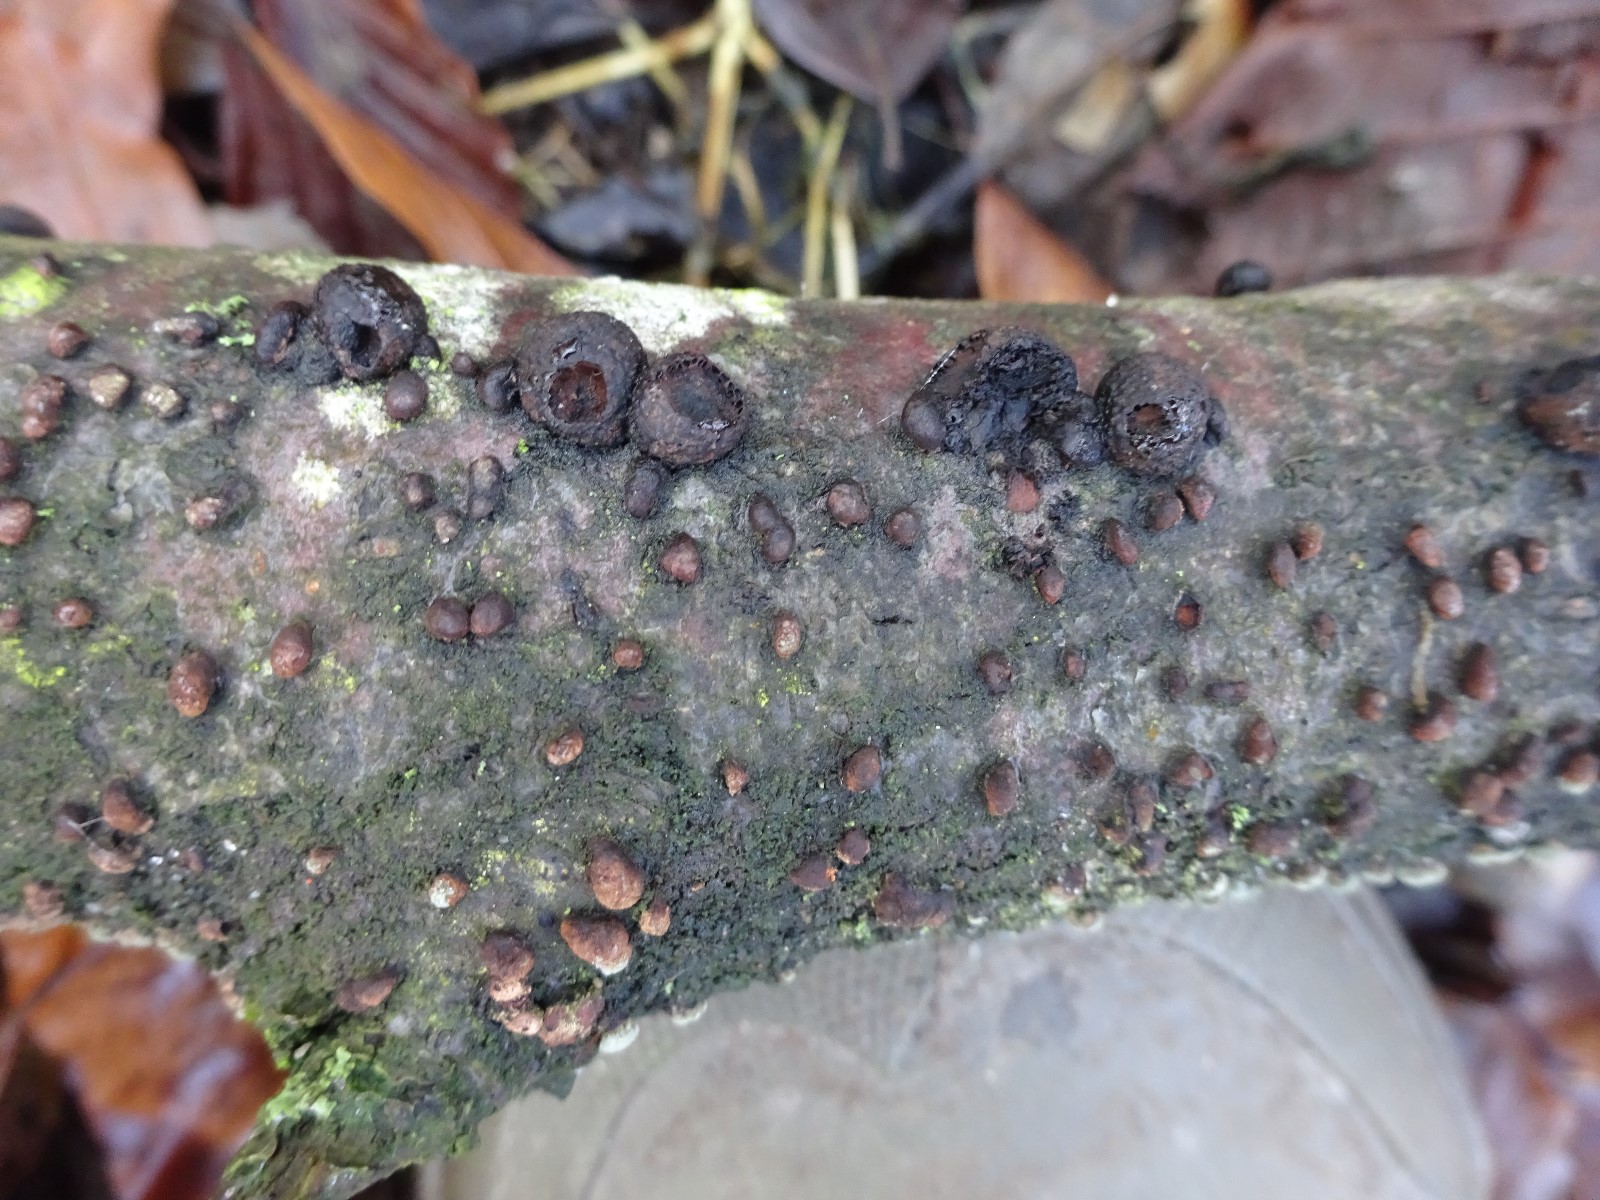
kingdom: Fungi
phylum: Ascomycota
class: Sordariomycetes
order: Xylariales
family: Hypoxylaceae
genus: Hypoxylon
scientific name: Hypoxylon fragiforme
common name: kuljordbær
